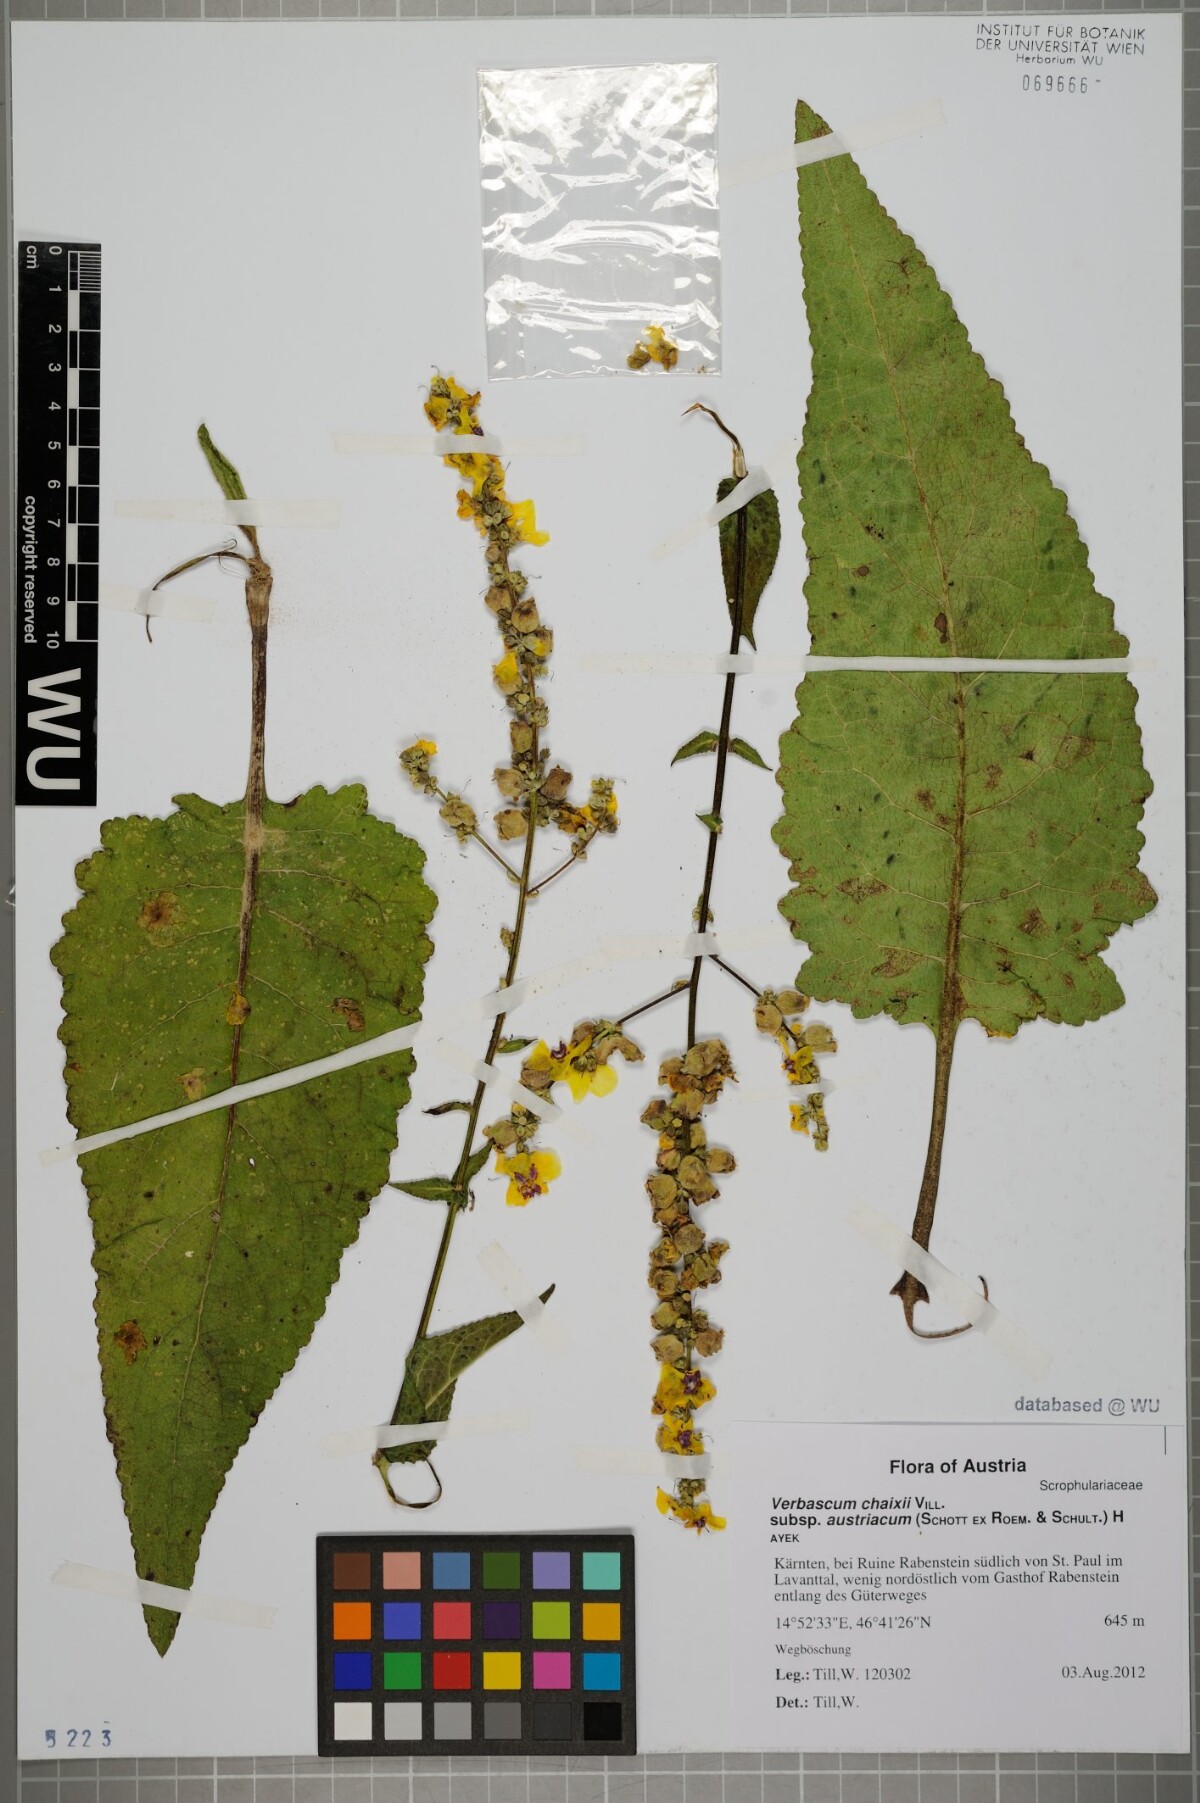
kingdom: Plantae
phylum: Tracheophyta
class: Magnoliopsida
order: Lamiales
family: Scrophulariaceae
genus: Verbascum
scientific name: Verbascum chaixii
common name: Nettle-leaved mullein
